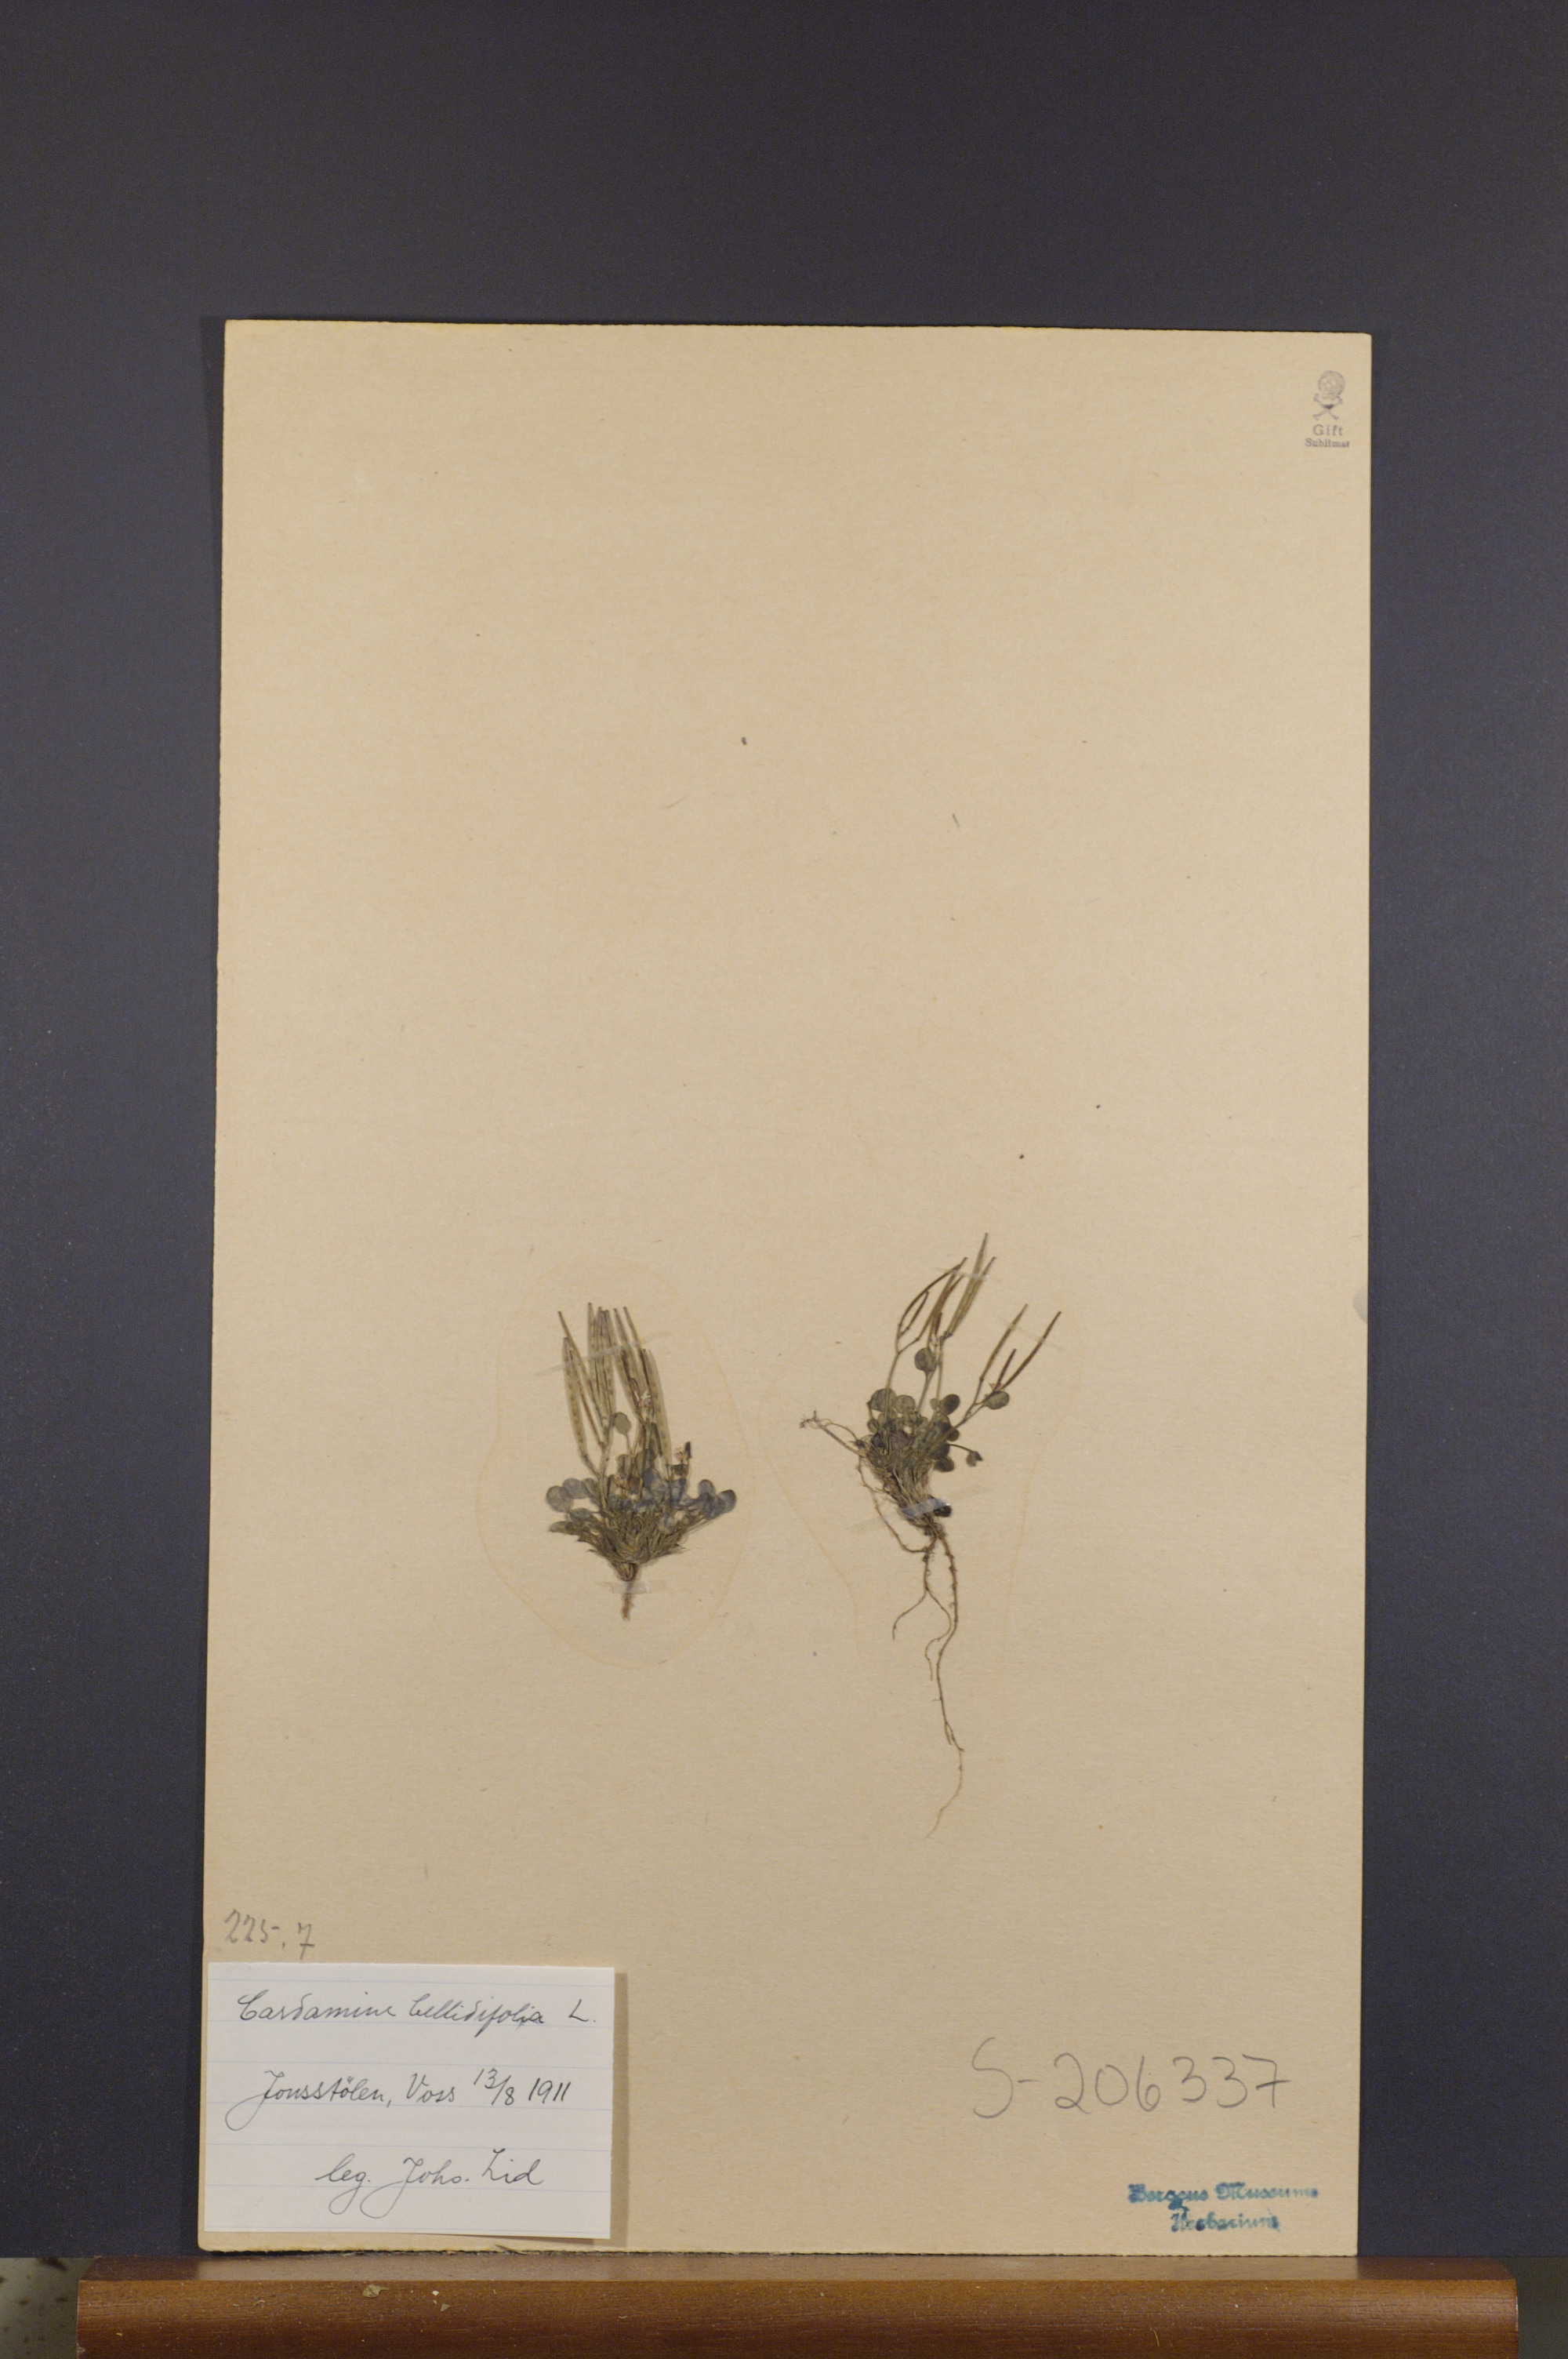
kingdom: Plantae
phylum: Tracheophyta
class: Magnoliopsida
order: Brassicales
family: Brassicaceae
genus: Cardamine
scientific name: Cardamine bellidifolia
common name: Alpine bittercress
